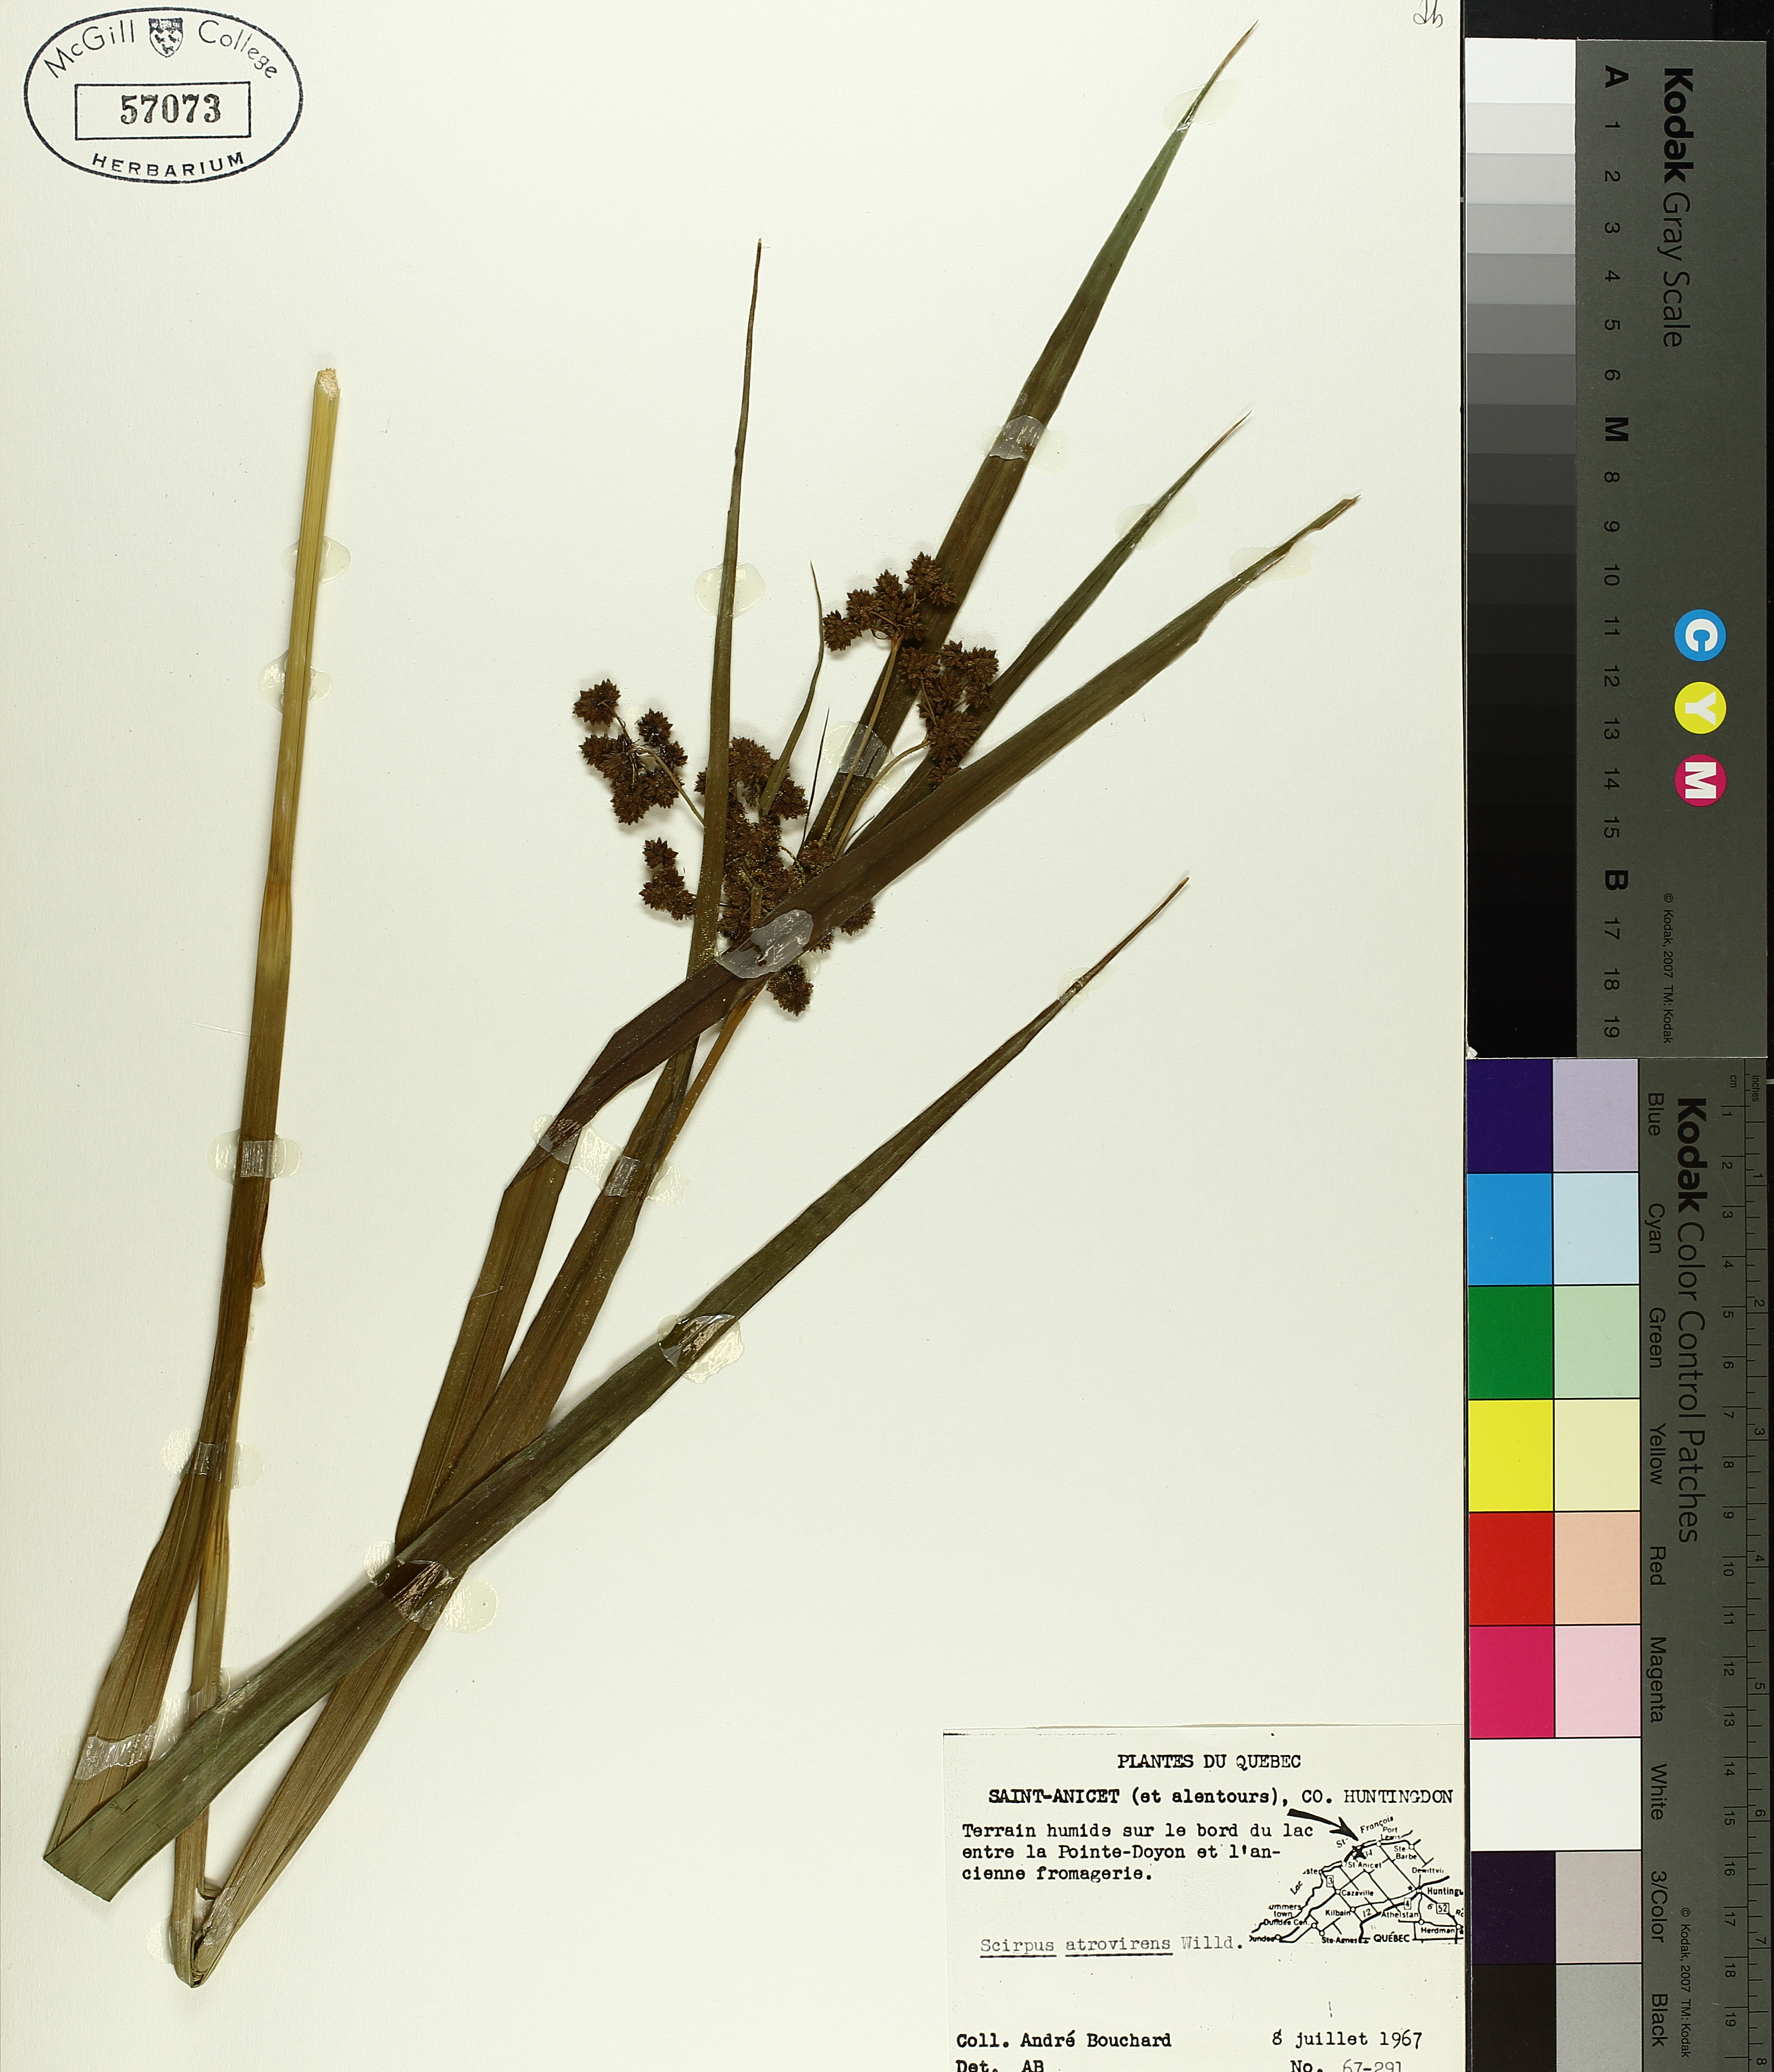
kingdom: Plantae
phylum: Tracheophyta
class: Liliopsida
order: Poales
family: Cyperaceae
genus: Scirpus
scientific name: Scirpus atrovirens
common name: Black bulrush
